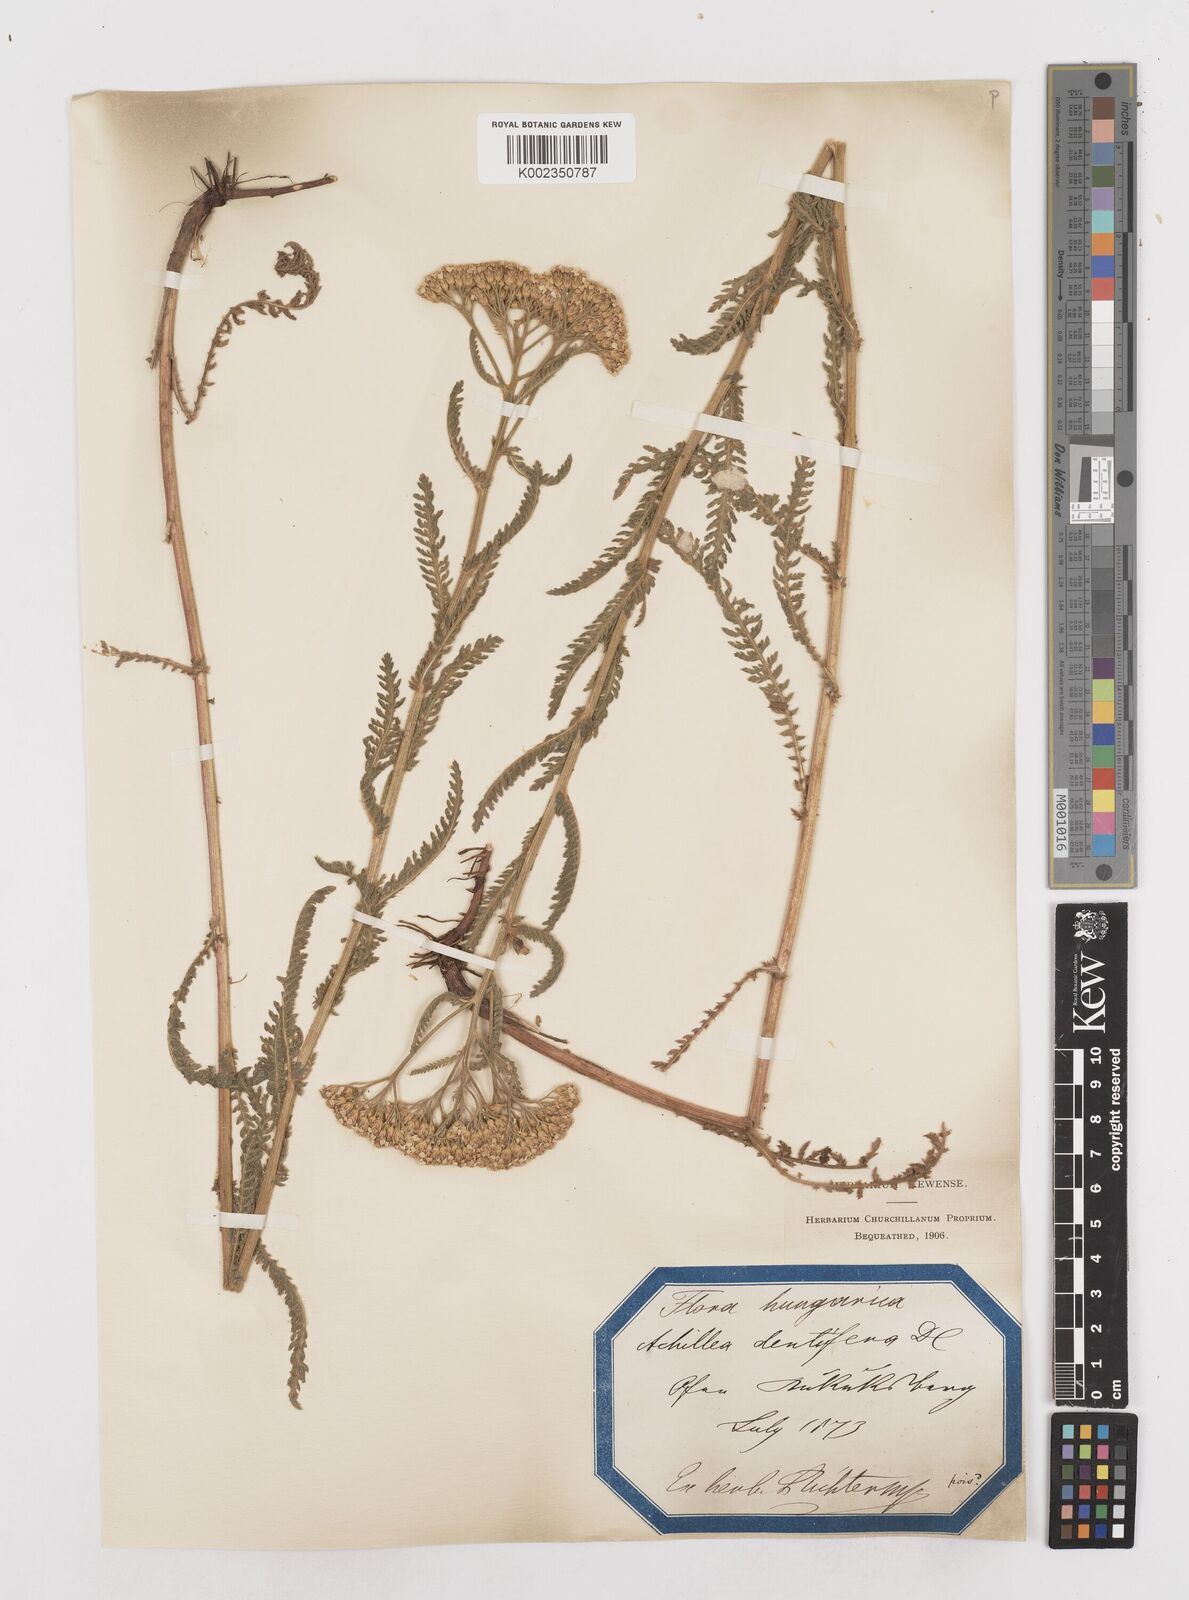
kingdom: Plantae
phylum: Tracheophyta
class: Magnoliopsida
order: Asterales
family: Asteraceae
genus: Achillea
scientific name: Achillea distans
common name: Tall yarrow
